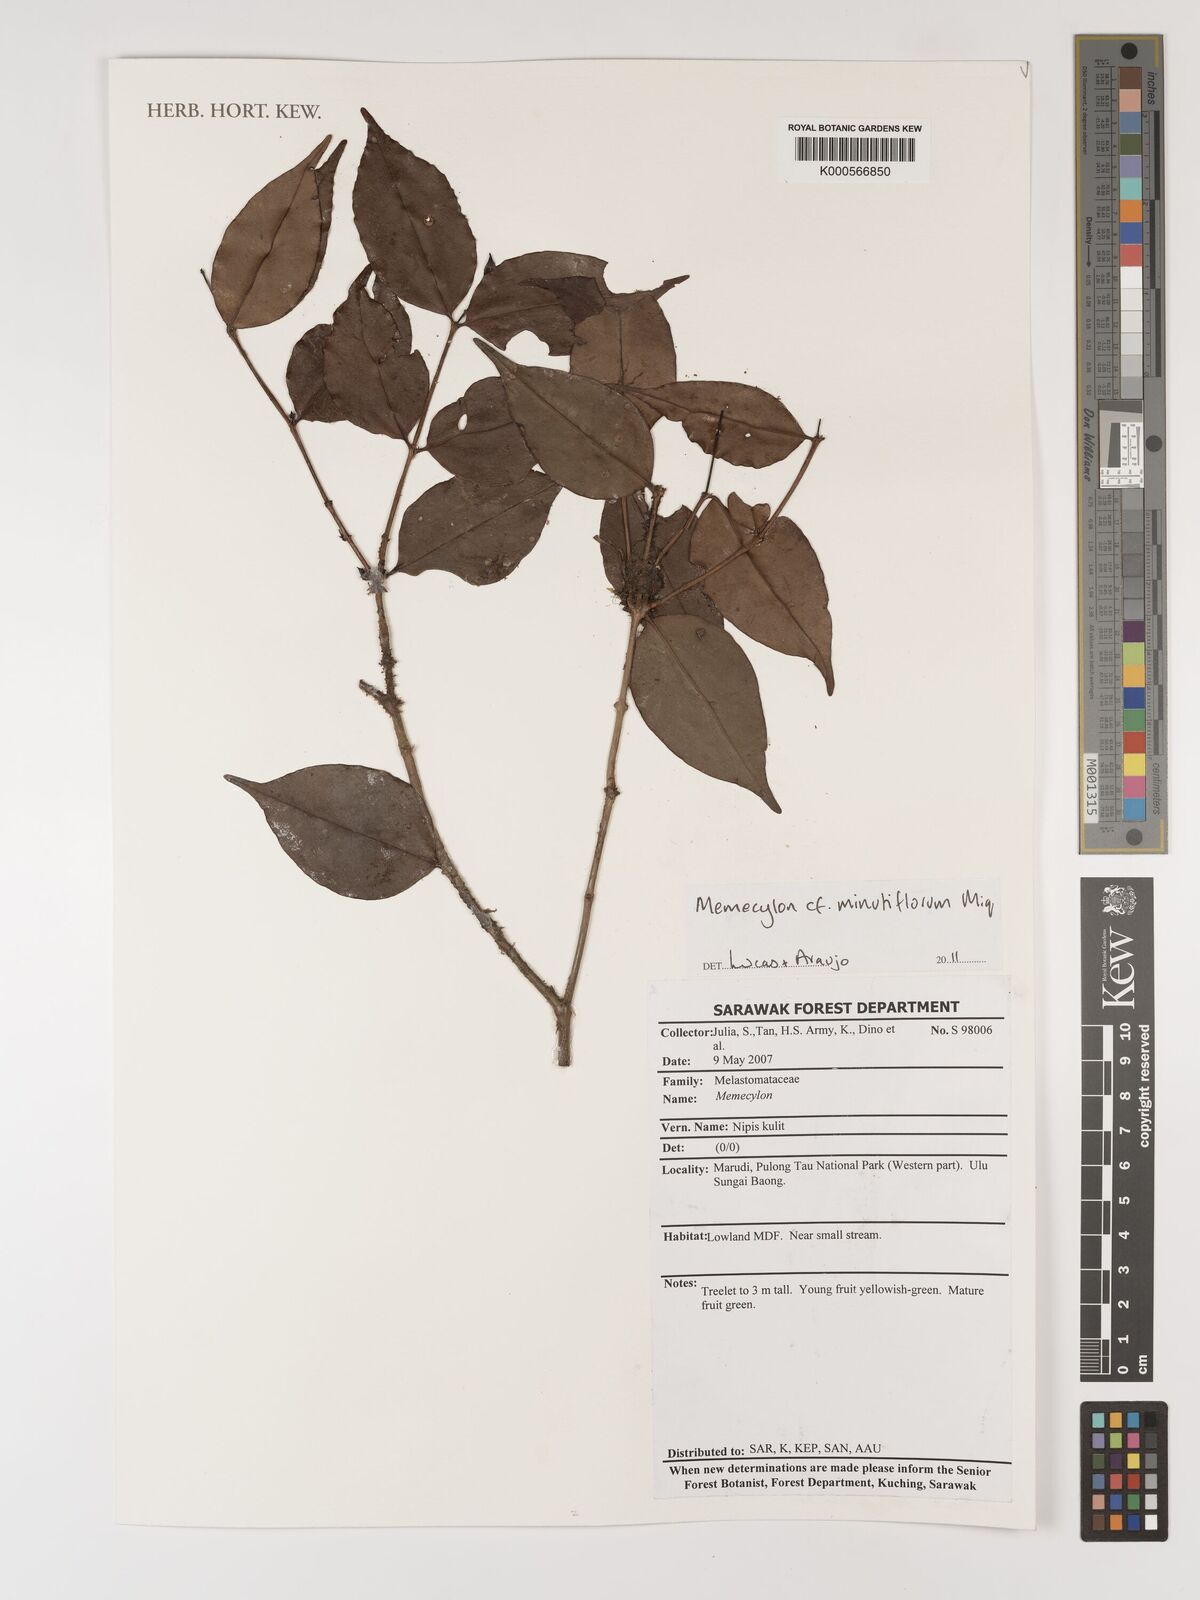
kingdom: Plantae
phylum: Tracheophyta
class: Magnoliopsida
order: Myrtales
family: Melastomataceae
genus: Memecylon
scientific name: Memecylon minutiflorum
